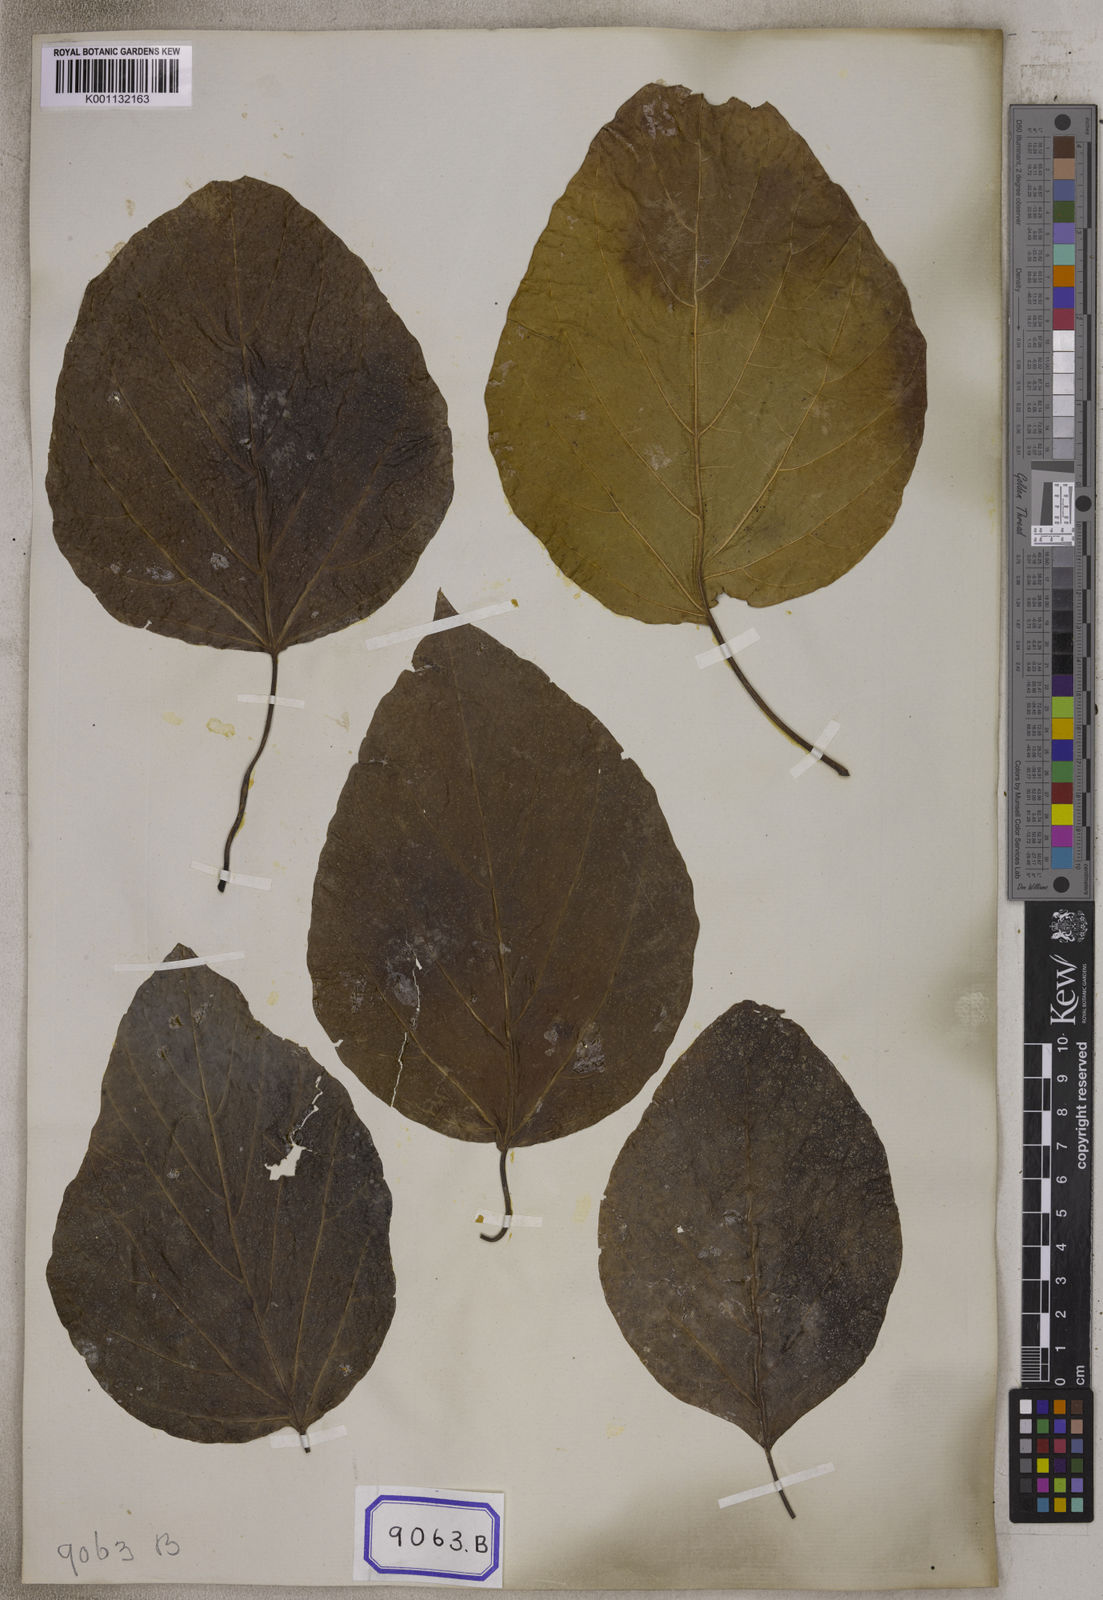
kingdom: Plantae
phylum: Tracheophyta
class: Magnoliopsida
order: Boraginales
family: Cordiaceae
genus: Cordia
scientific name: Cordia subcordata
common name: Mareer
